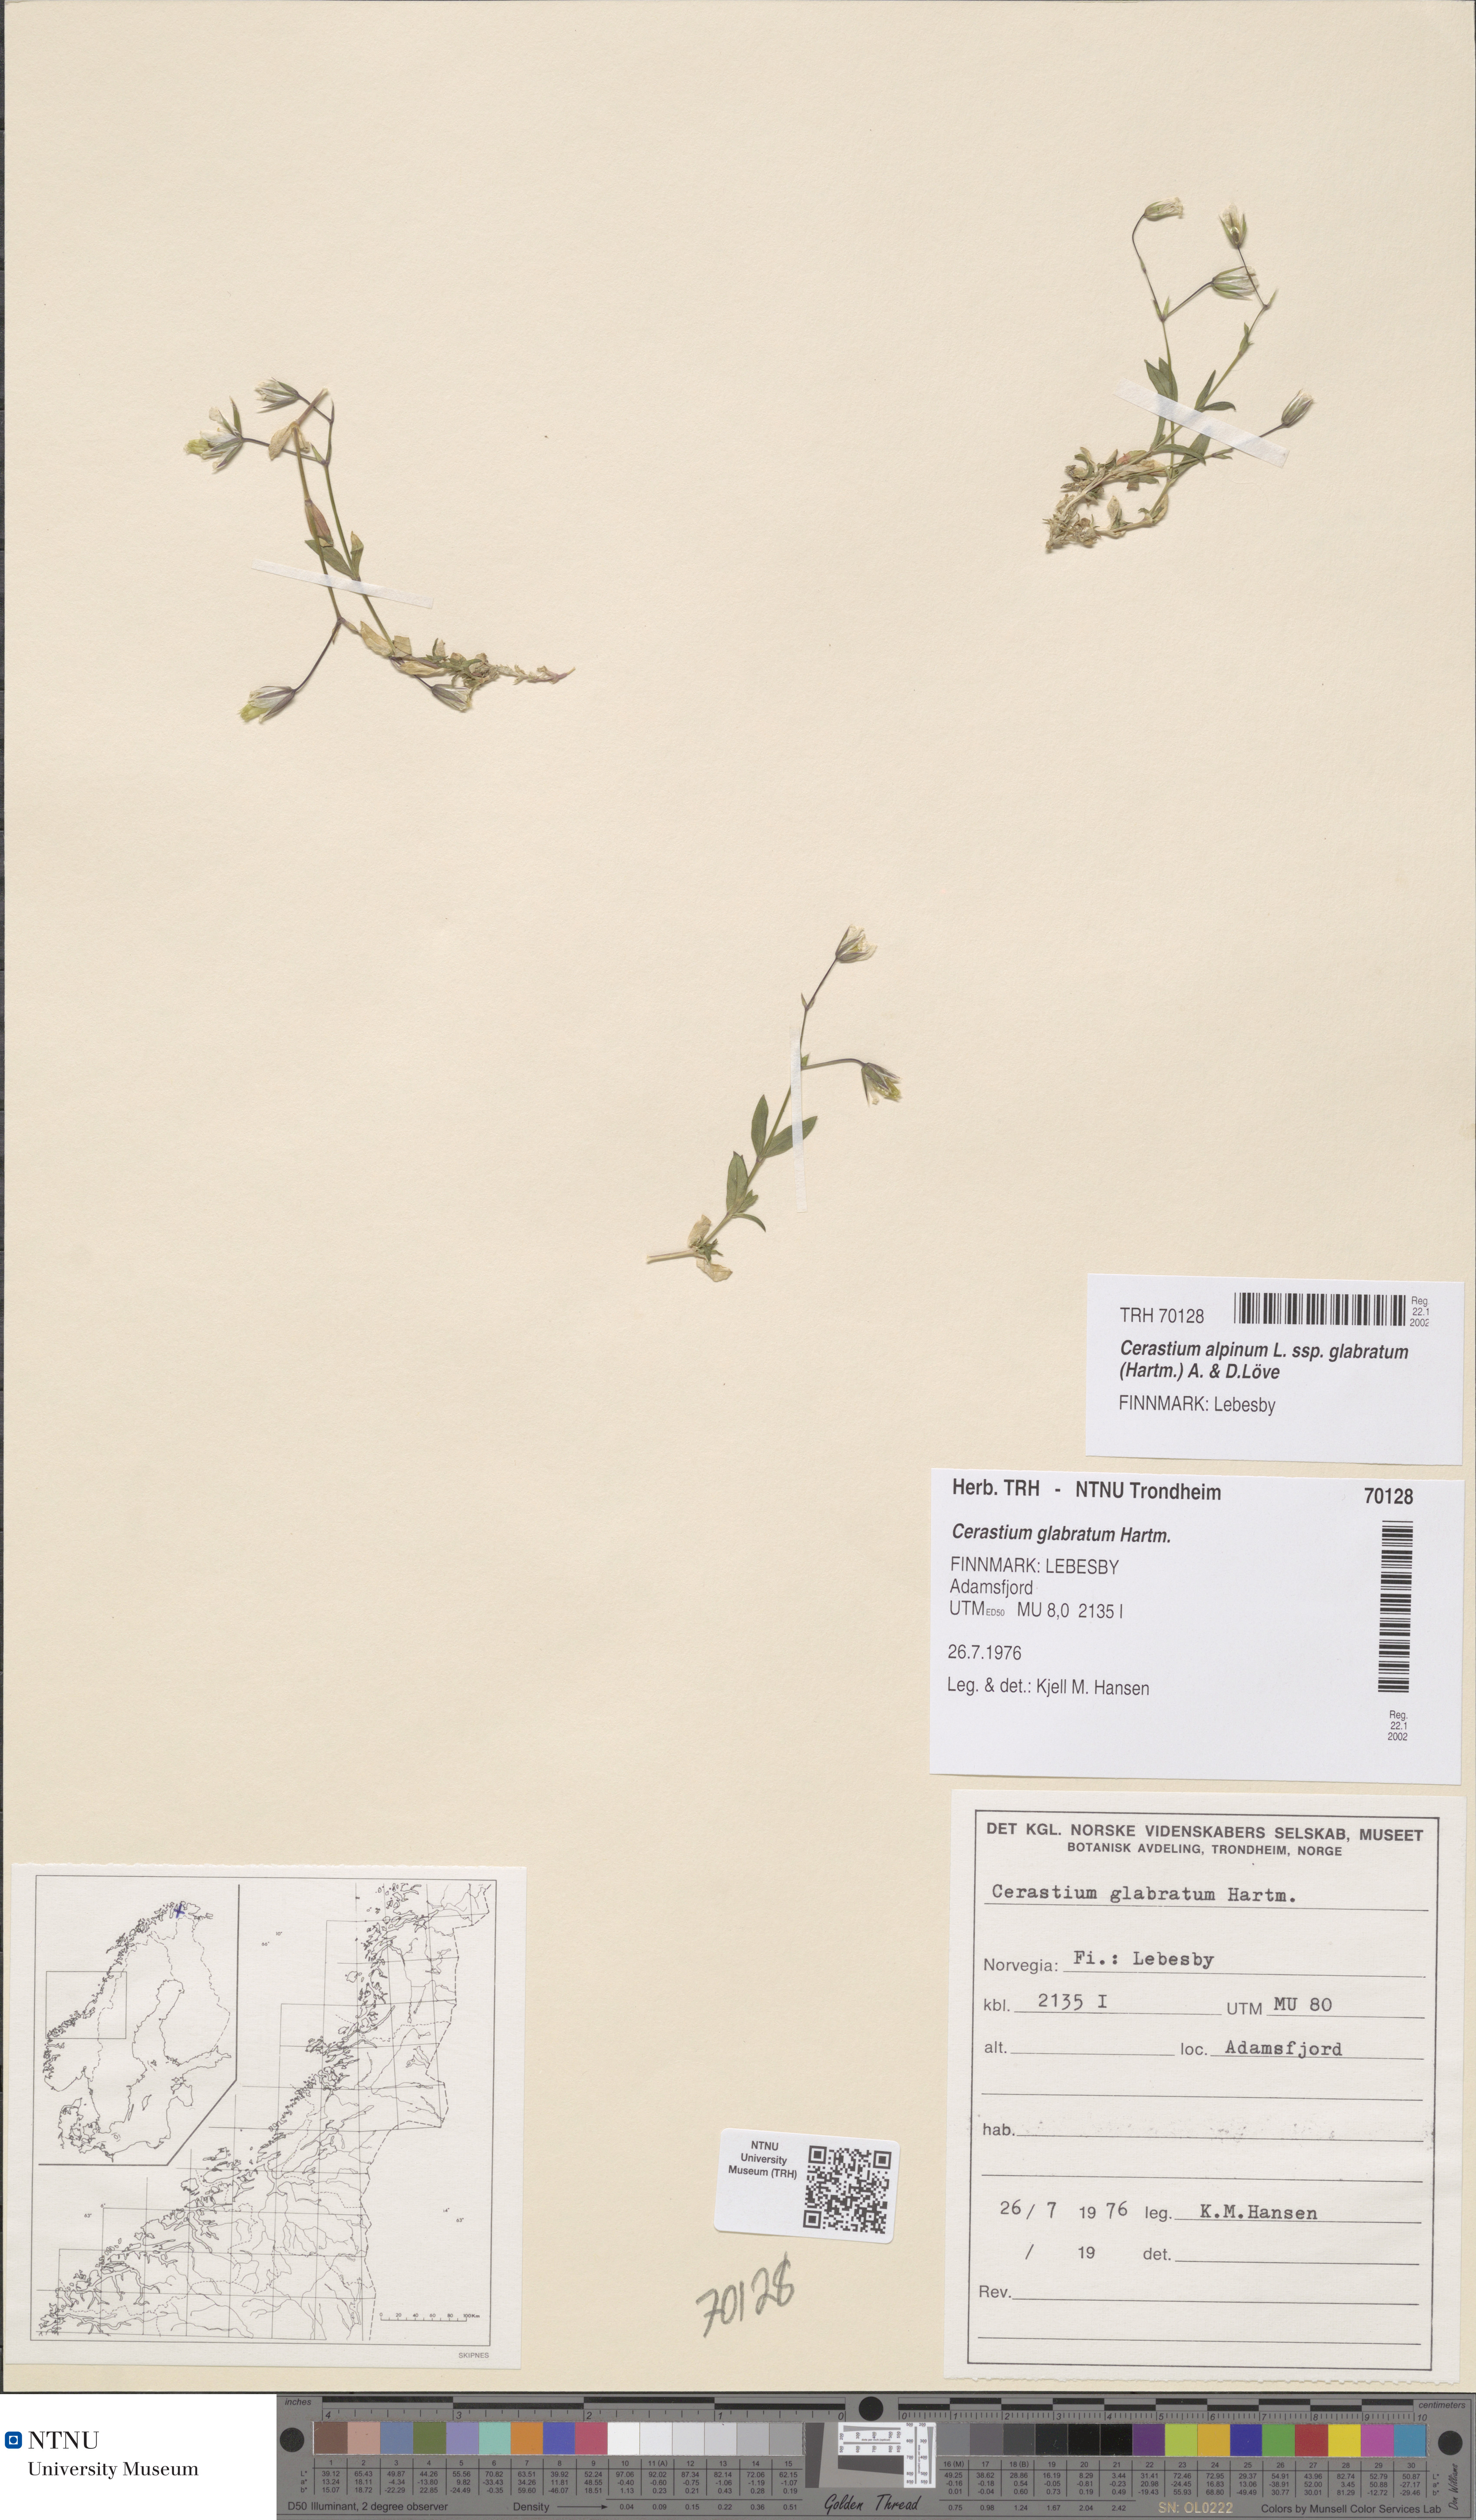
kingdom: Plantae
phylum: Tracheophyta
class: Magnoliopsida
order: Caryophyllales
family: Caryophyllaceae
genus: Cerastium
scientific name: Cerastium alpinum
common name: Alpine mouse-ear
